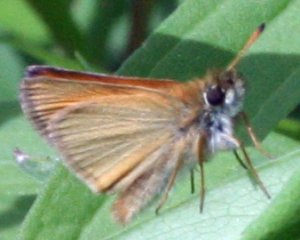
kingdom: Animalia
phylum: Arthropoda
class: Insecta
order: Lepidoptera
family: Hesperiidae
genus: Thymelicus
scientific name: Thymelicus lineola
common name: European Skipper
